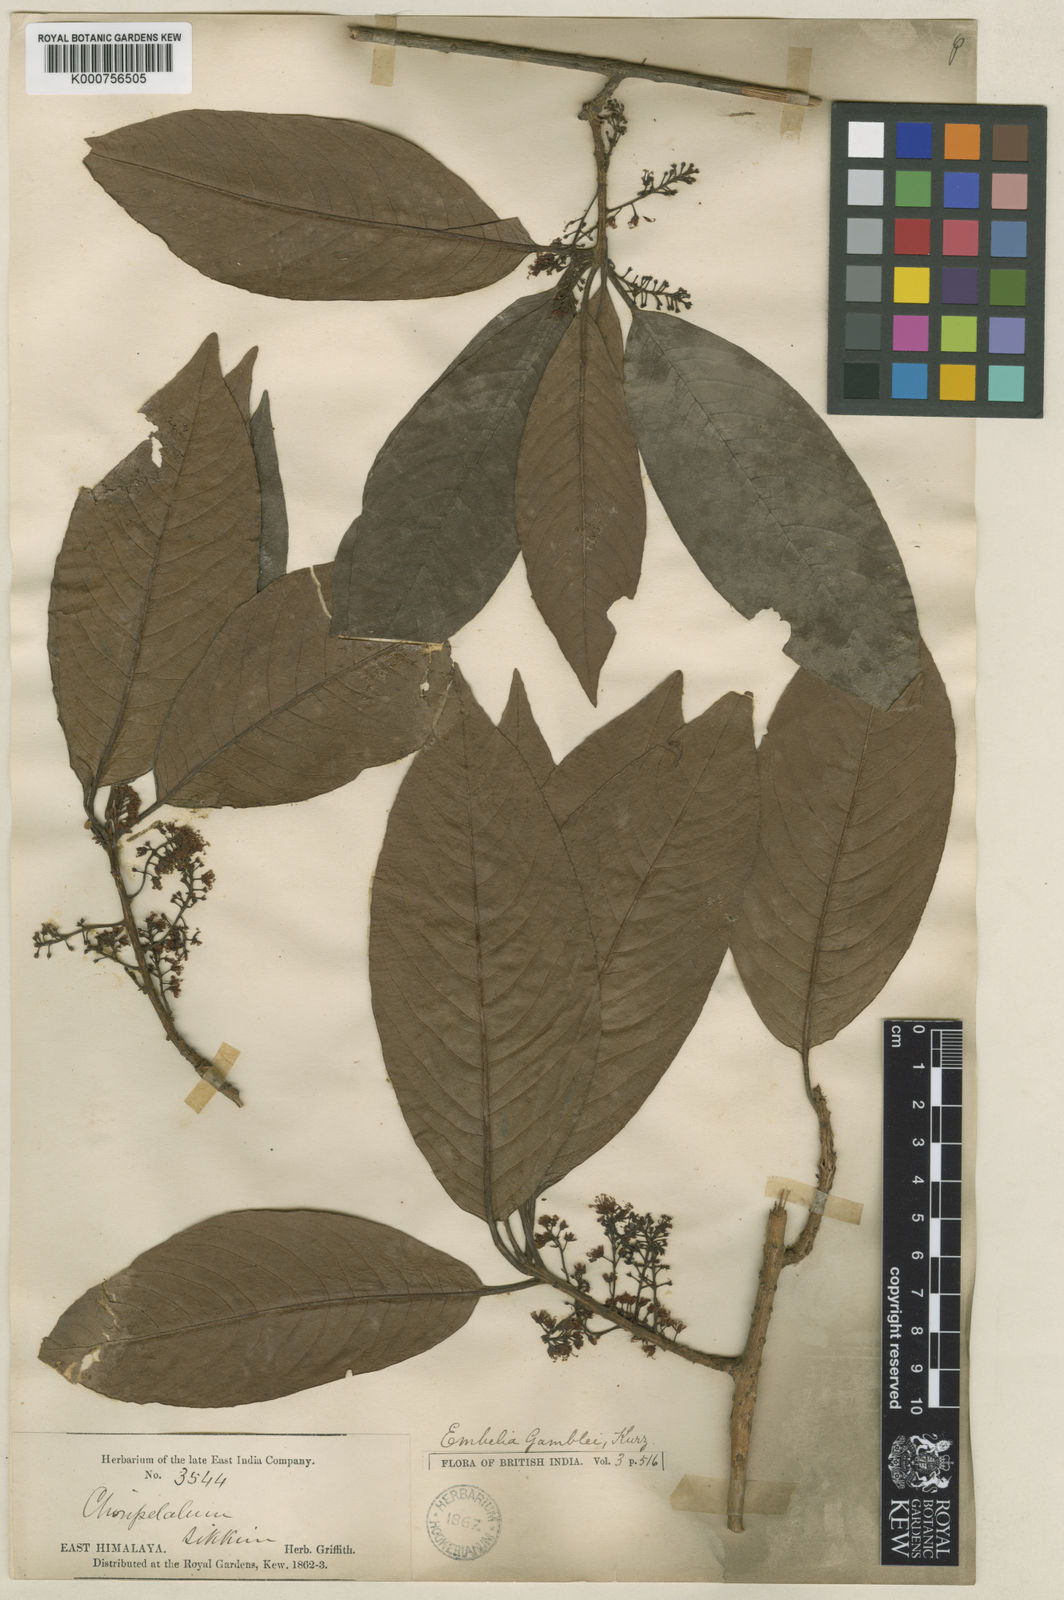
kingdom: Plantae
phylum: Tracheophyta
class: Magnoliopsida
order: Ericales
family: Primulaceae
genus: Embelia
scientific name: Embelia frondosa
